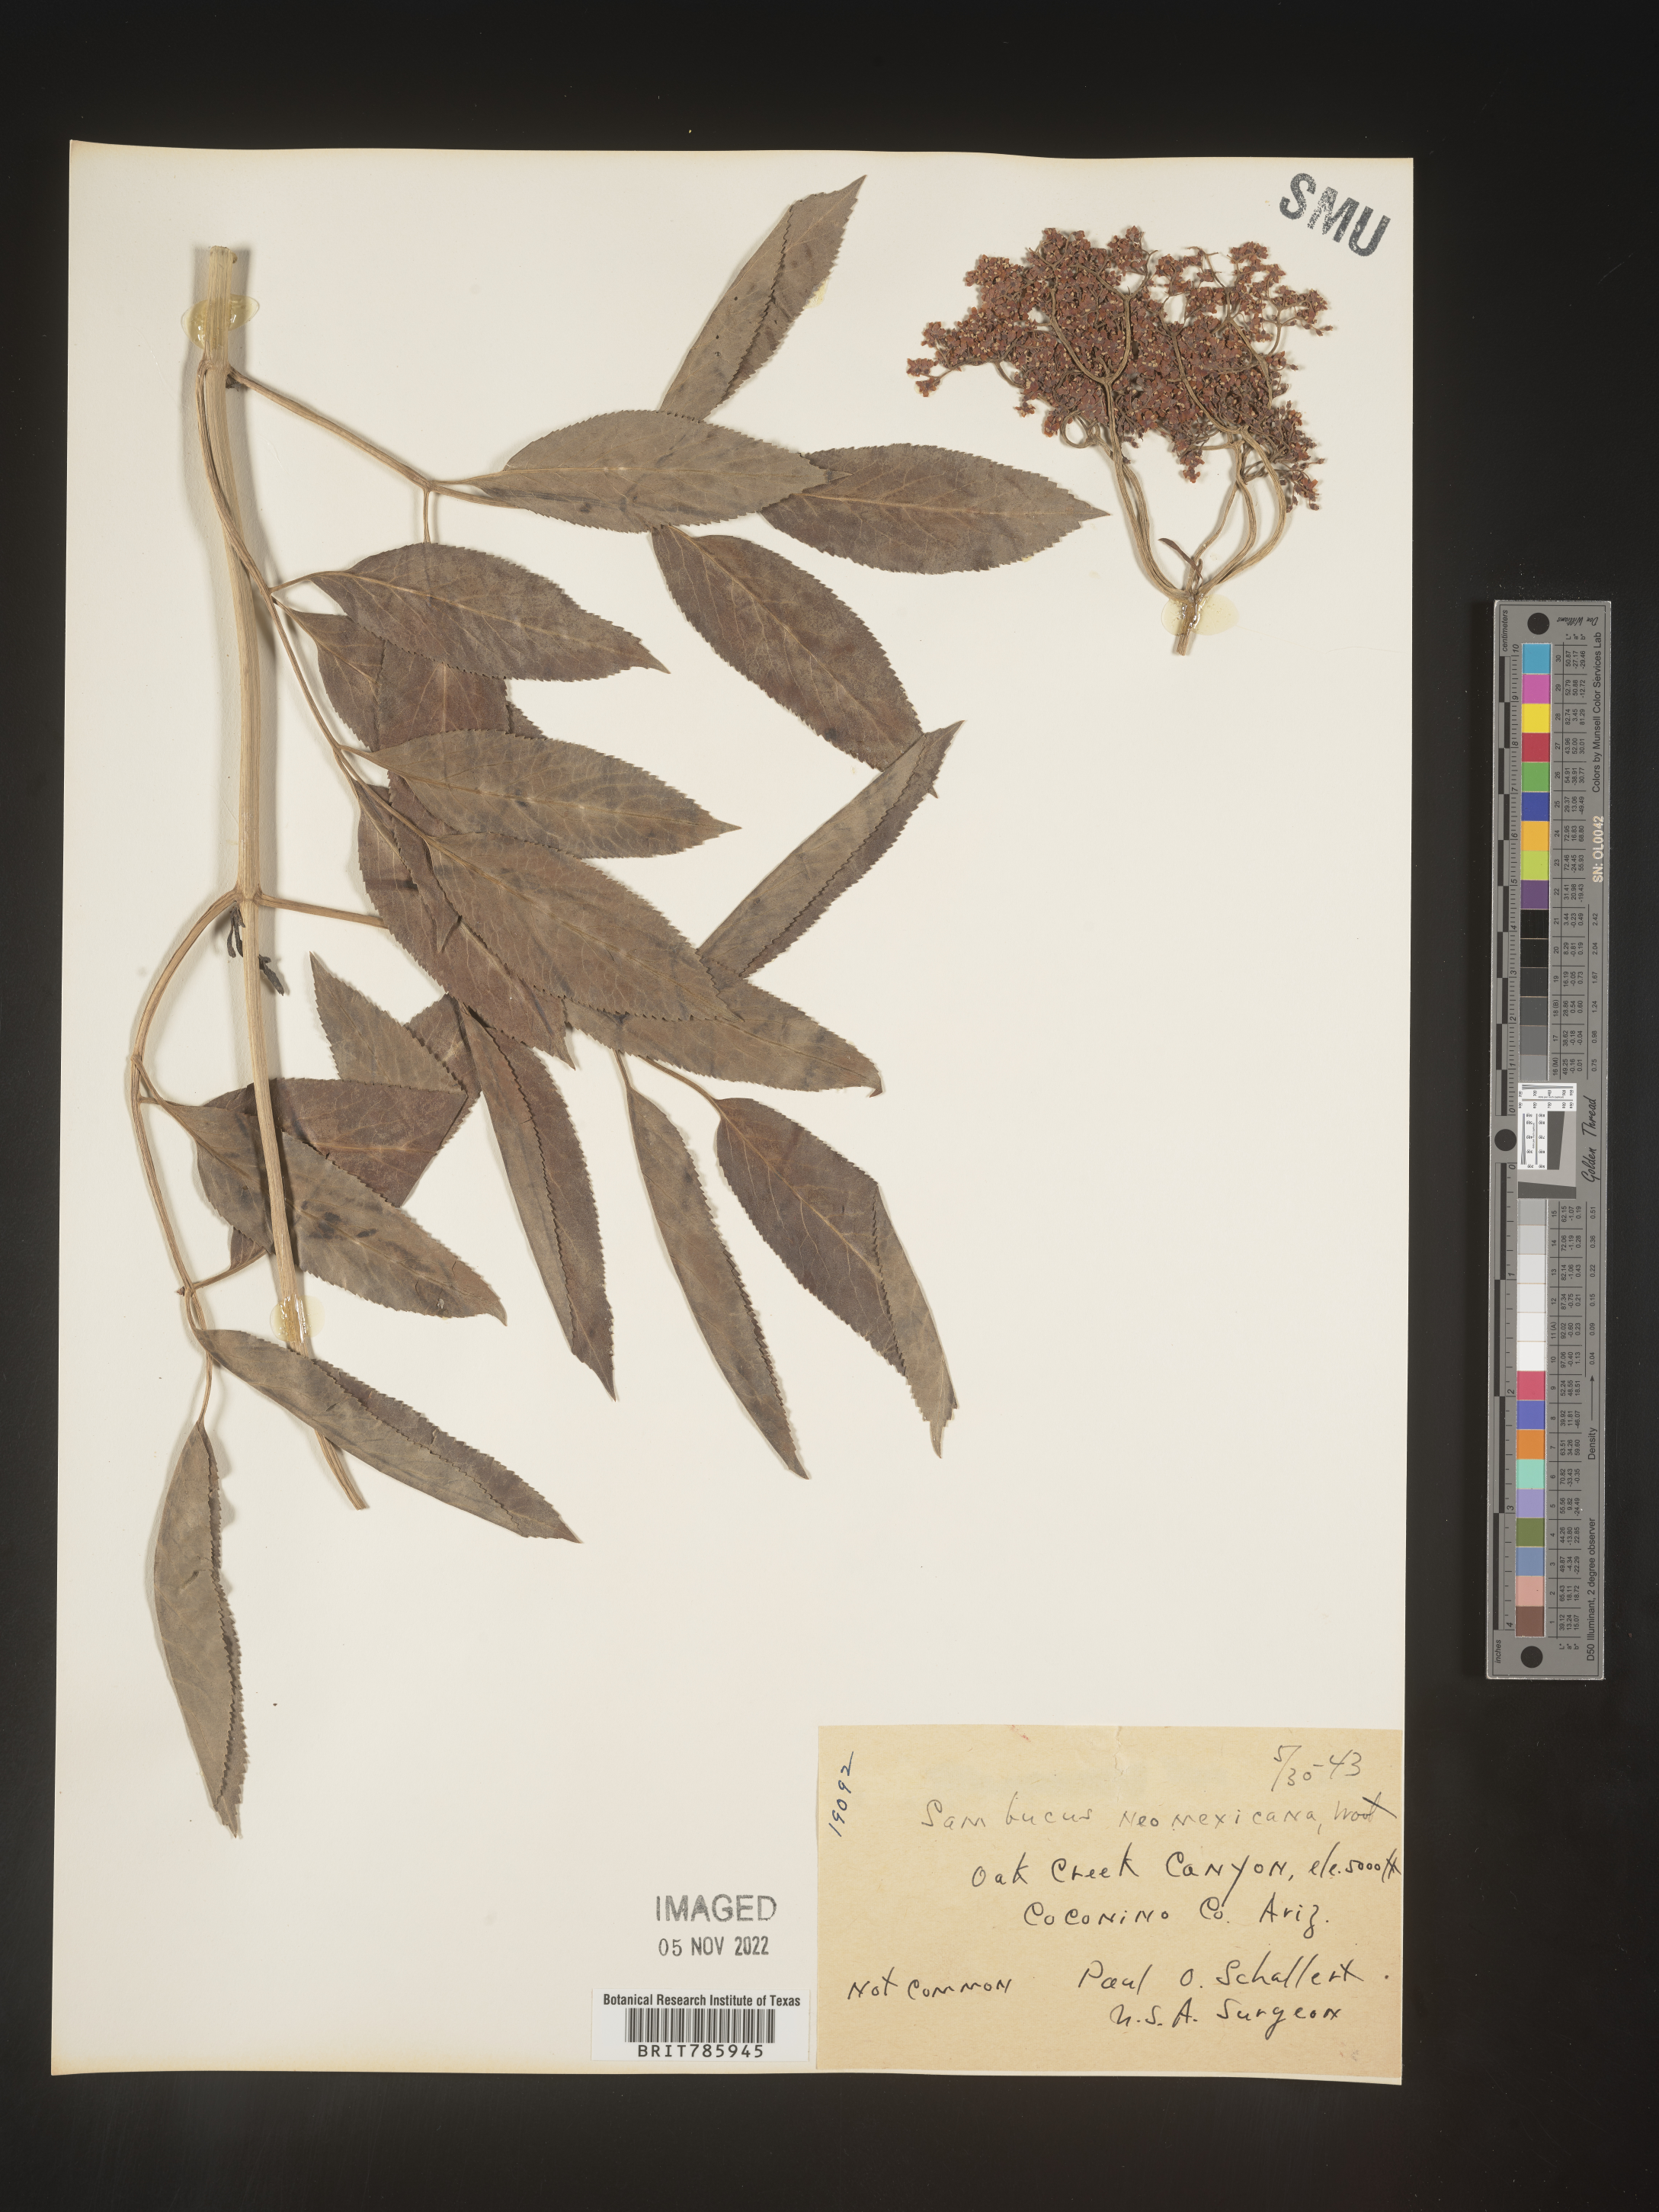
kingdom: Plantae
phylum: Tracheophyta
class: Magnoliopsida
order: Dipsacales
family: Viburnaceae
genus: Sambucus
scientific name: Sambucus
